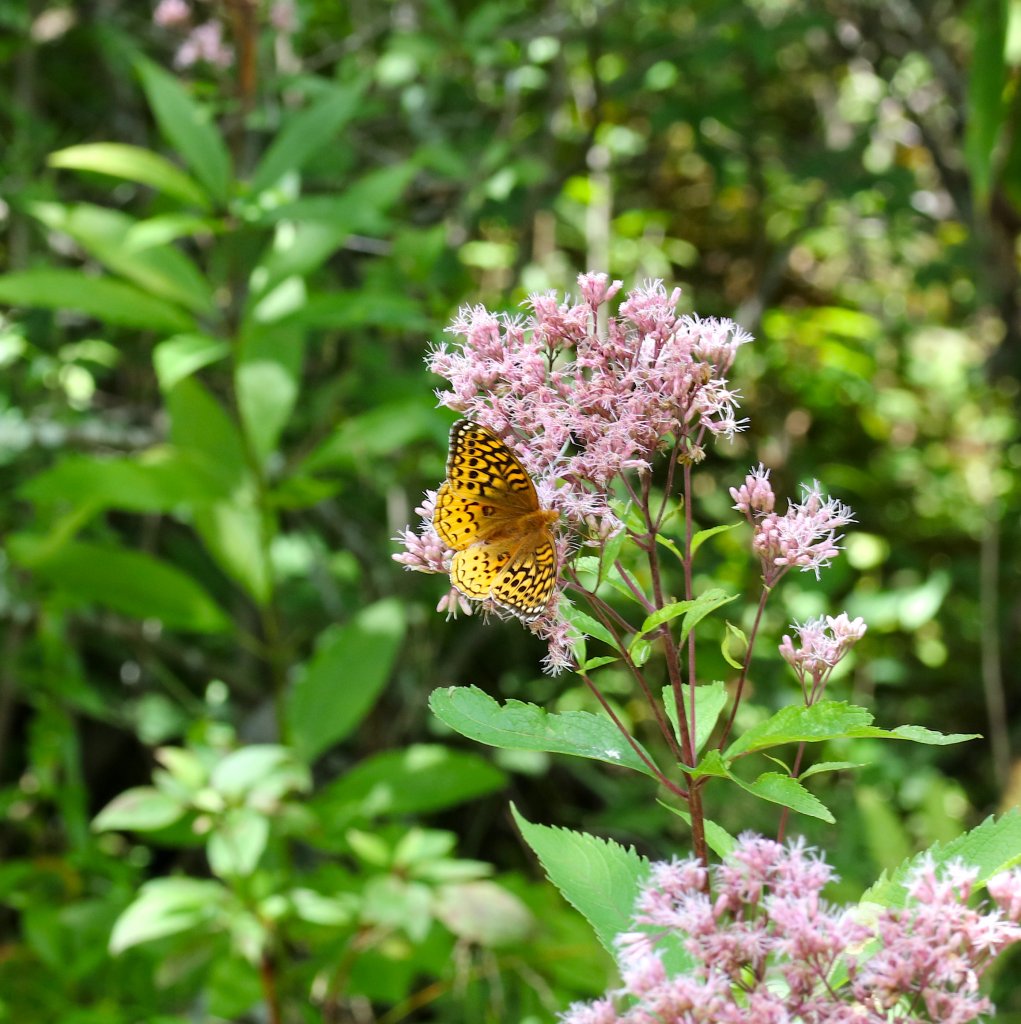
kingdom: Animalia
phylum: Arthropoda
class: Insecta
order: Lepidoptera
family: Nymphalidae
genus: Speyeria
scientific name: Speyeria aphrodite
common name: Aphrodite Fritillary
